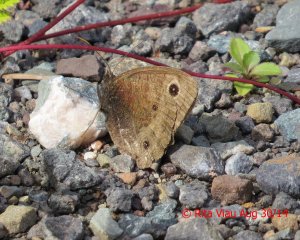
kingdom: Animalia
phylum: Arthropoda
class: Insecta
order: Lepidoptera
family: Nymphalidae
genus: Cercyonis
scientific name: Cercyonis pegala
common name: Common Wood-Nymph
